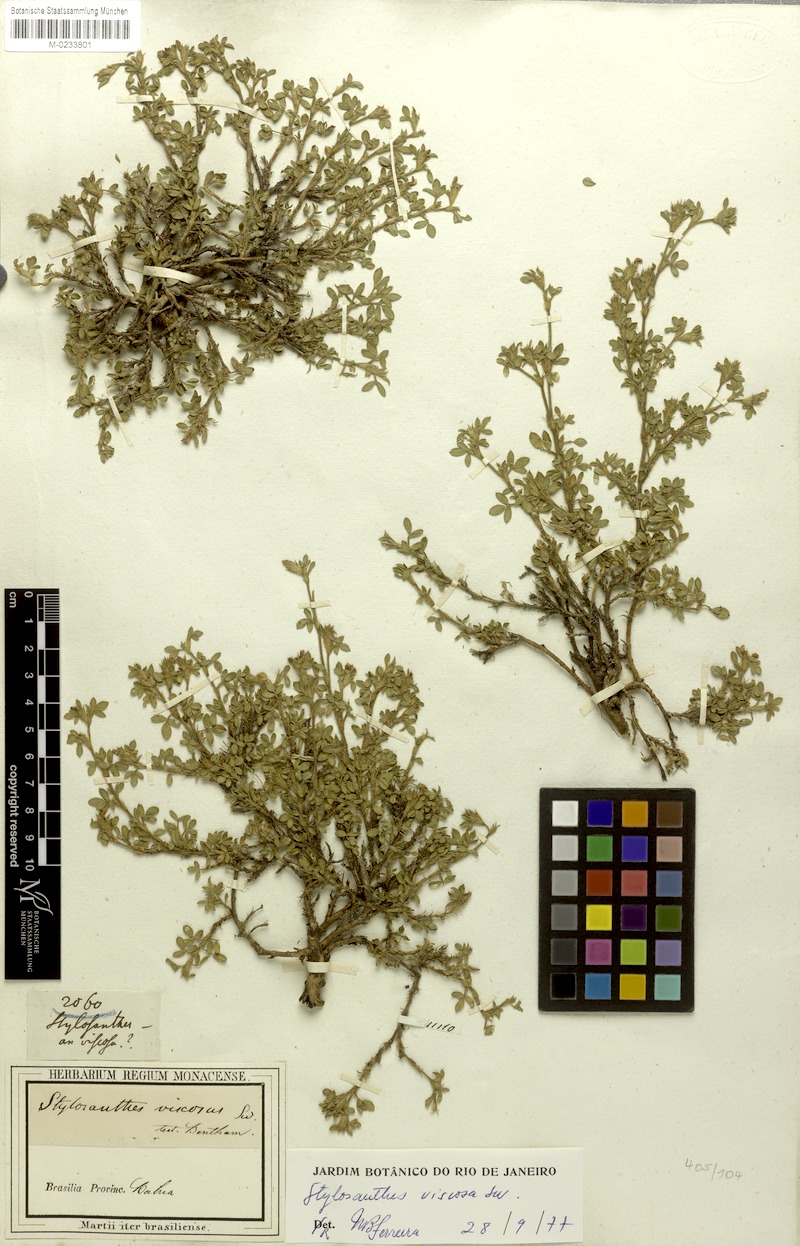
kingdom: Plantae
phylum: Tracheophyta
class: Magnoliopsida
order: Fabales
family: Fabaceae
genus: Stylosanthes
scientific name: Stylosanthes viscosa
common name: Viscid pencil-flower
